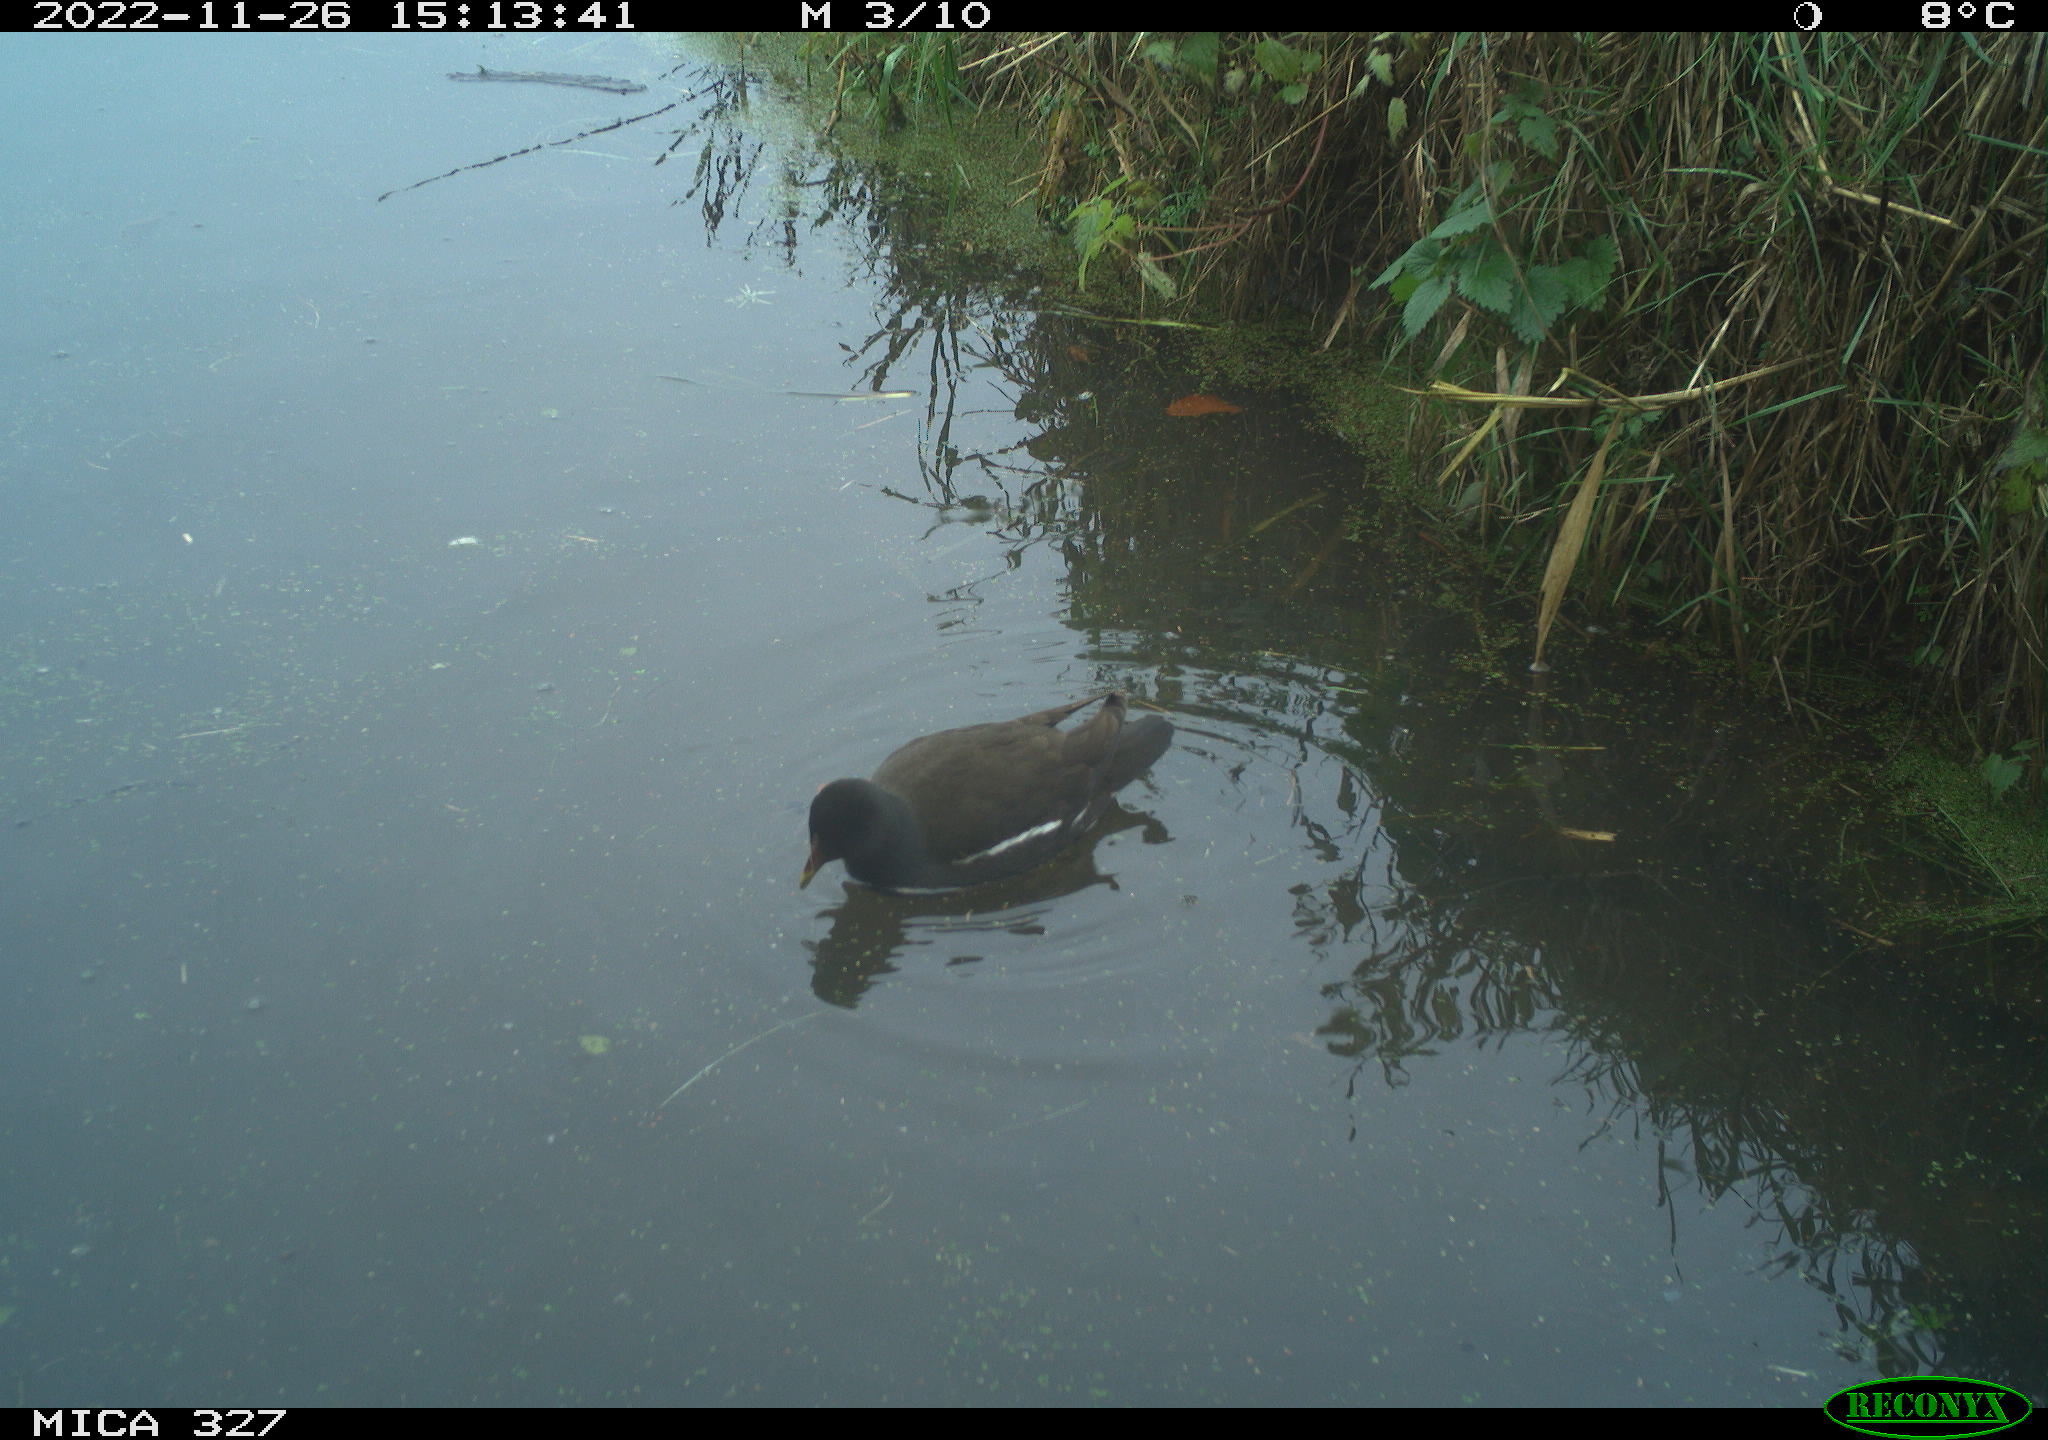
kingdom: Animalia
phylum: Chordata
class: Aves
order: Gruiformes
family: Rallidae
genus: Gallinula
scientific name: Gallinula chloropus
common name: Common moorhen
